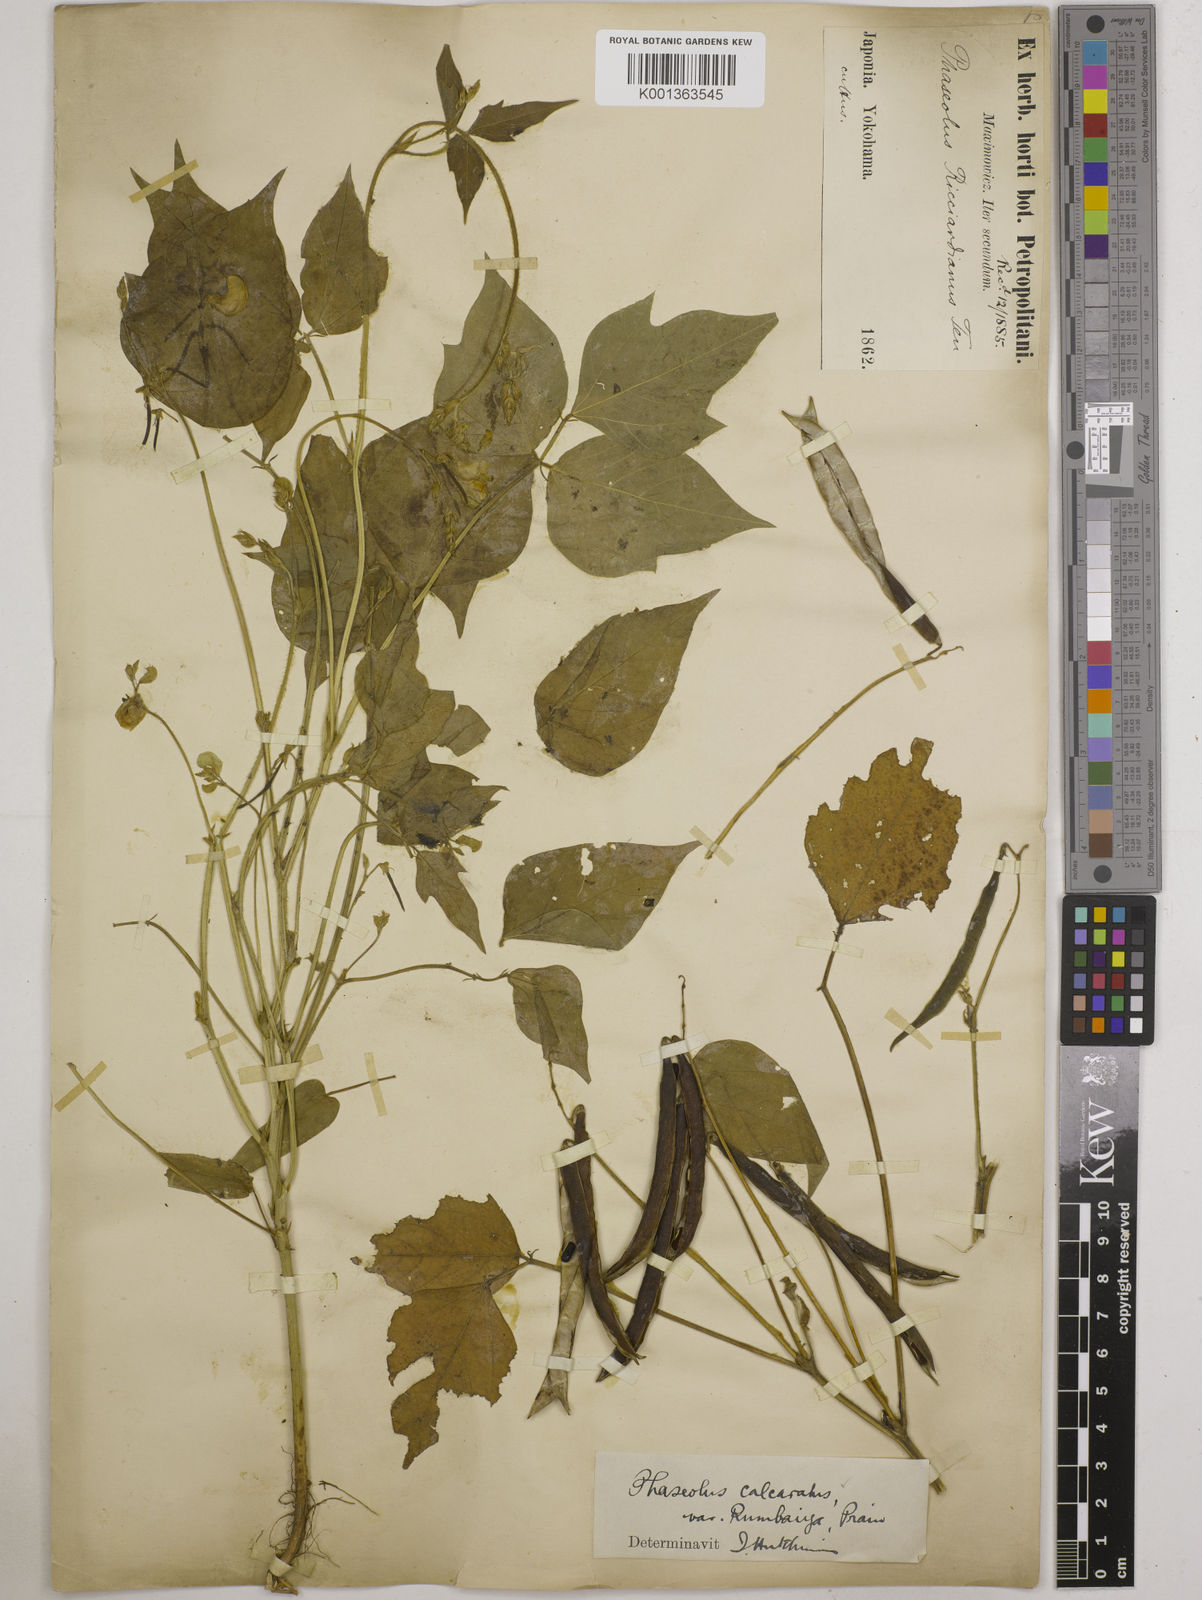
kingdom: Plantae
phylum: Tracheophyta
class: Magnoliopsida
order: Fabales
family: Fabaceae
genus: Vigna
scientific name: Vigna umbellata
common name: Oriental-bean
